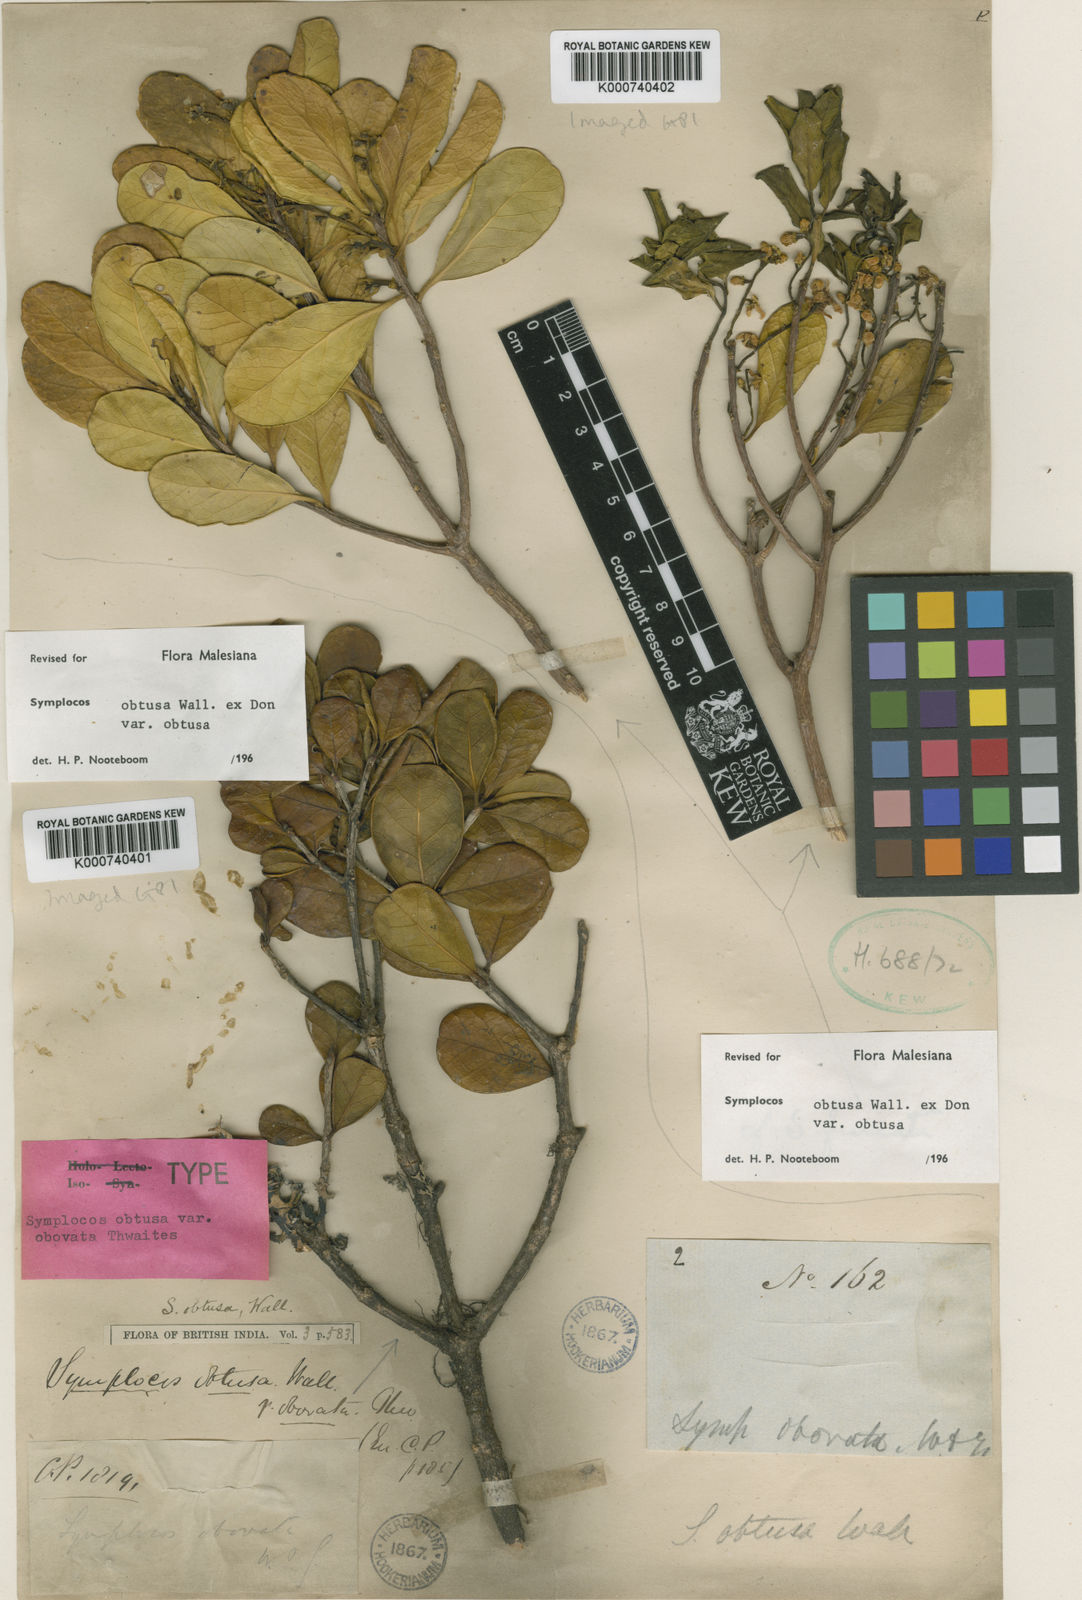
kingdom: Plantae
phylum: Tracheophyta
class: Magnoliopsida
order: Ericales
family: Symplocaceae
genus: Symplocos
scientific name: Symplocos
